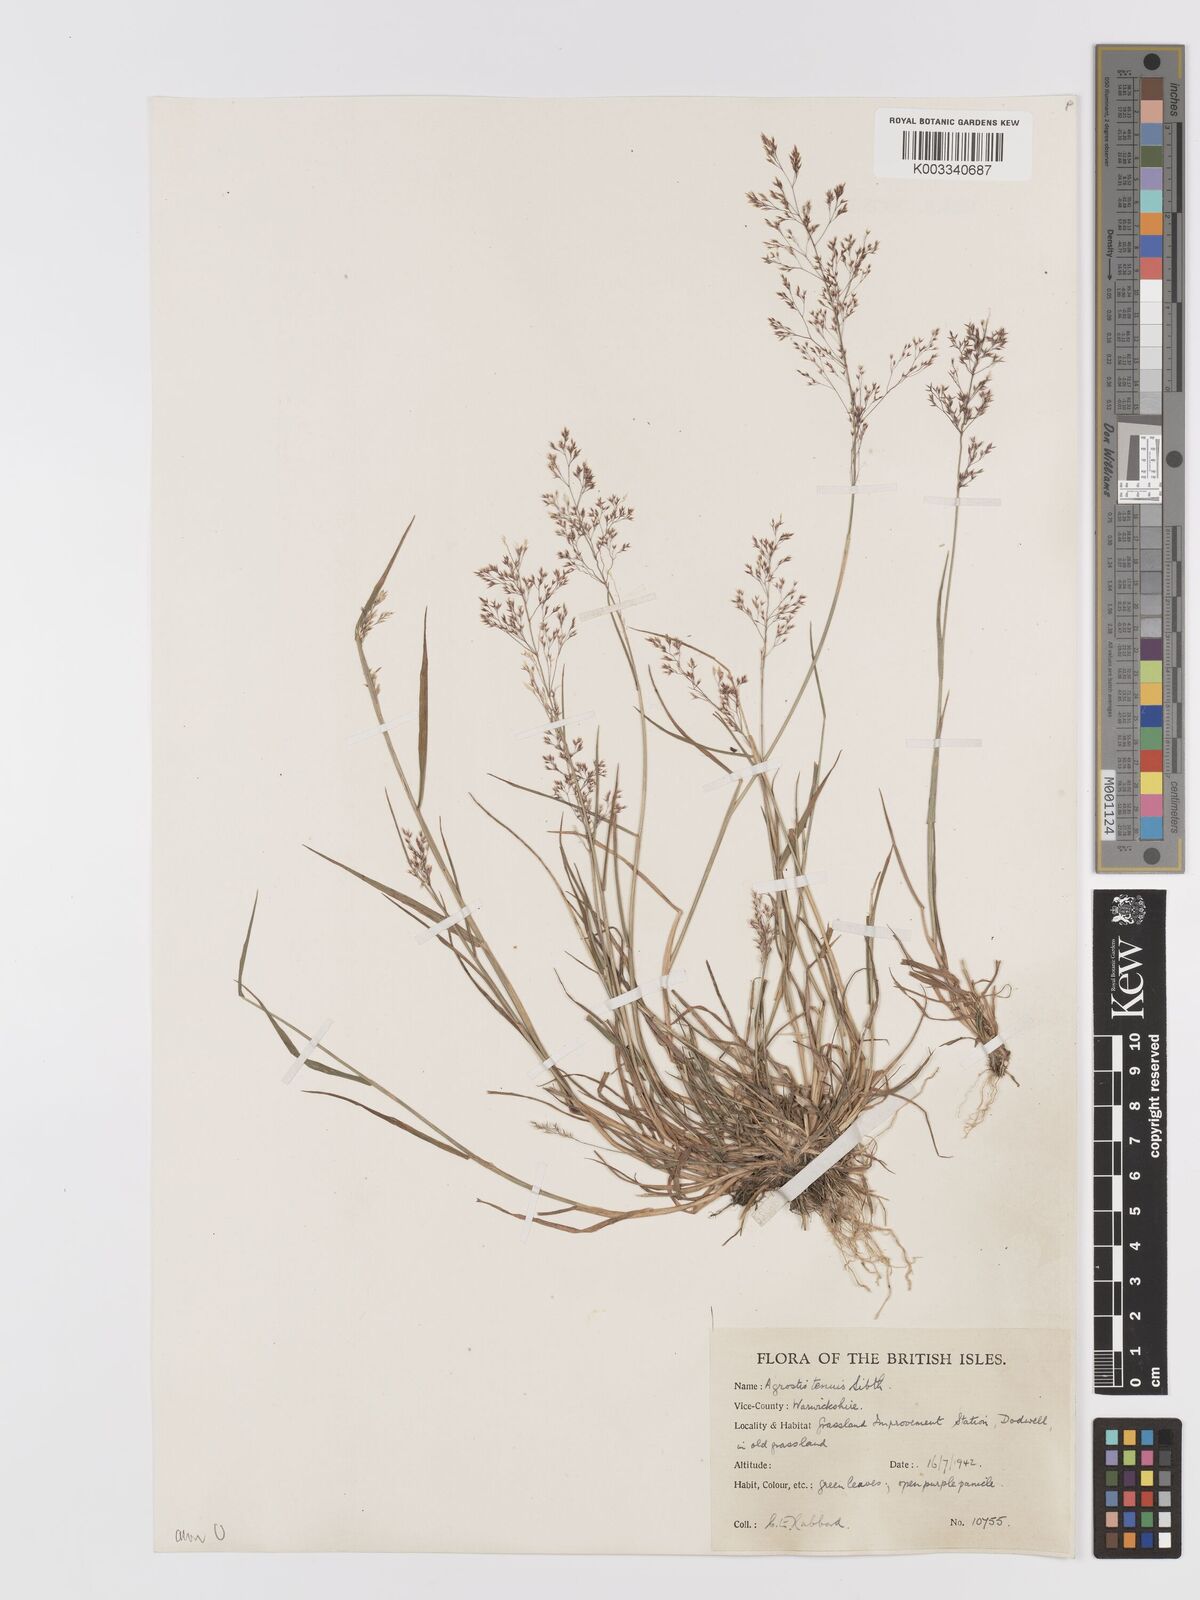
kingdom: Plantae
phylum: Tracheophyta
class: Liliopsida
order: Poales
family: Poaceae
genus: Agrostis
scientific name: Agrostis capillaris
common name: Colonial bentgrass
